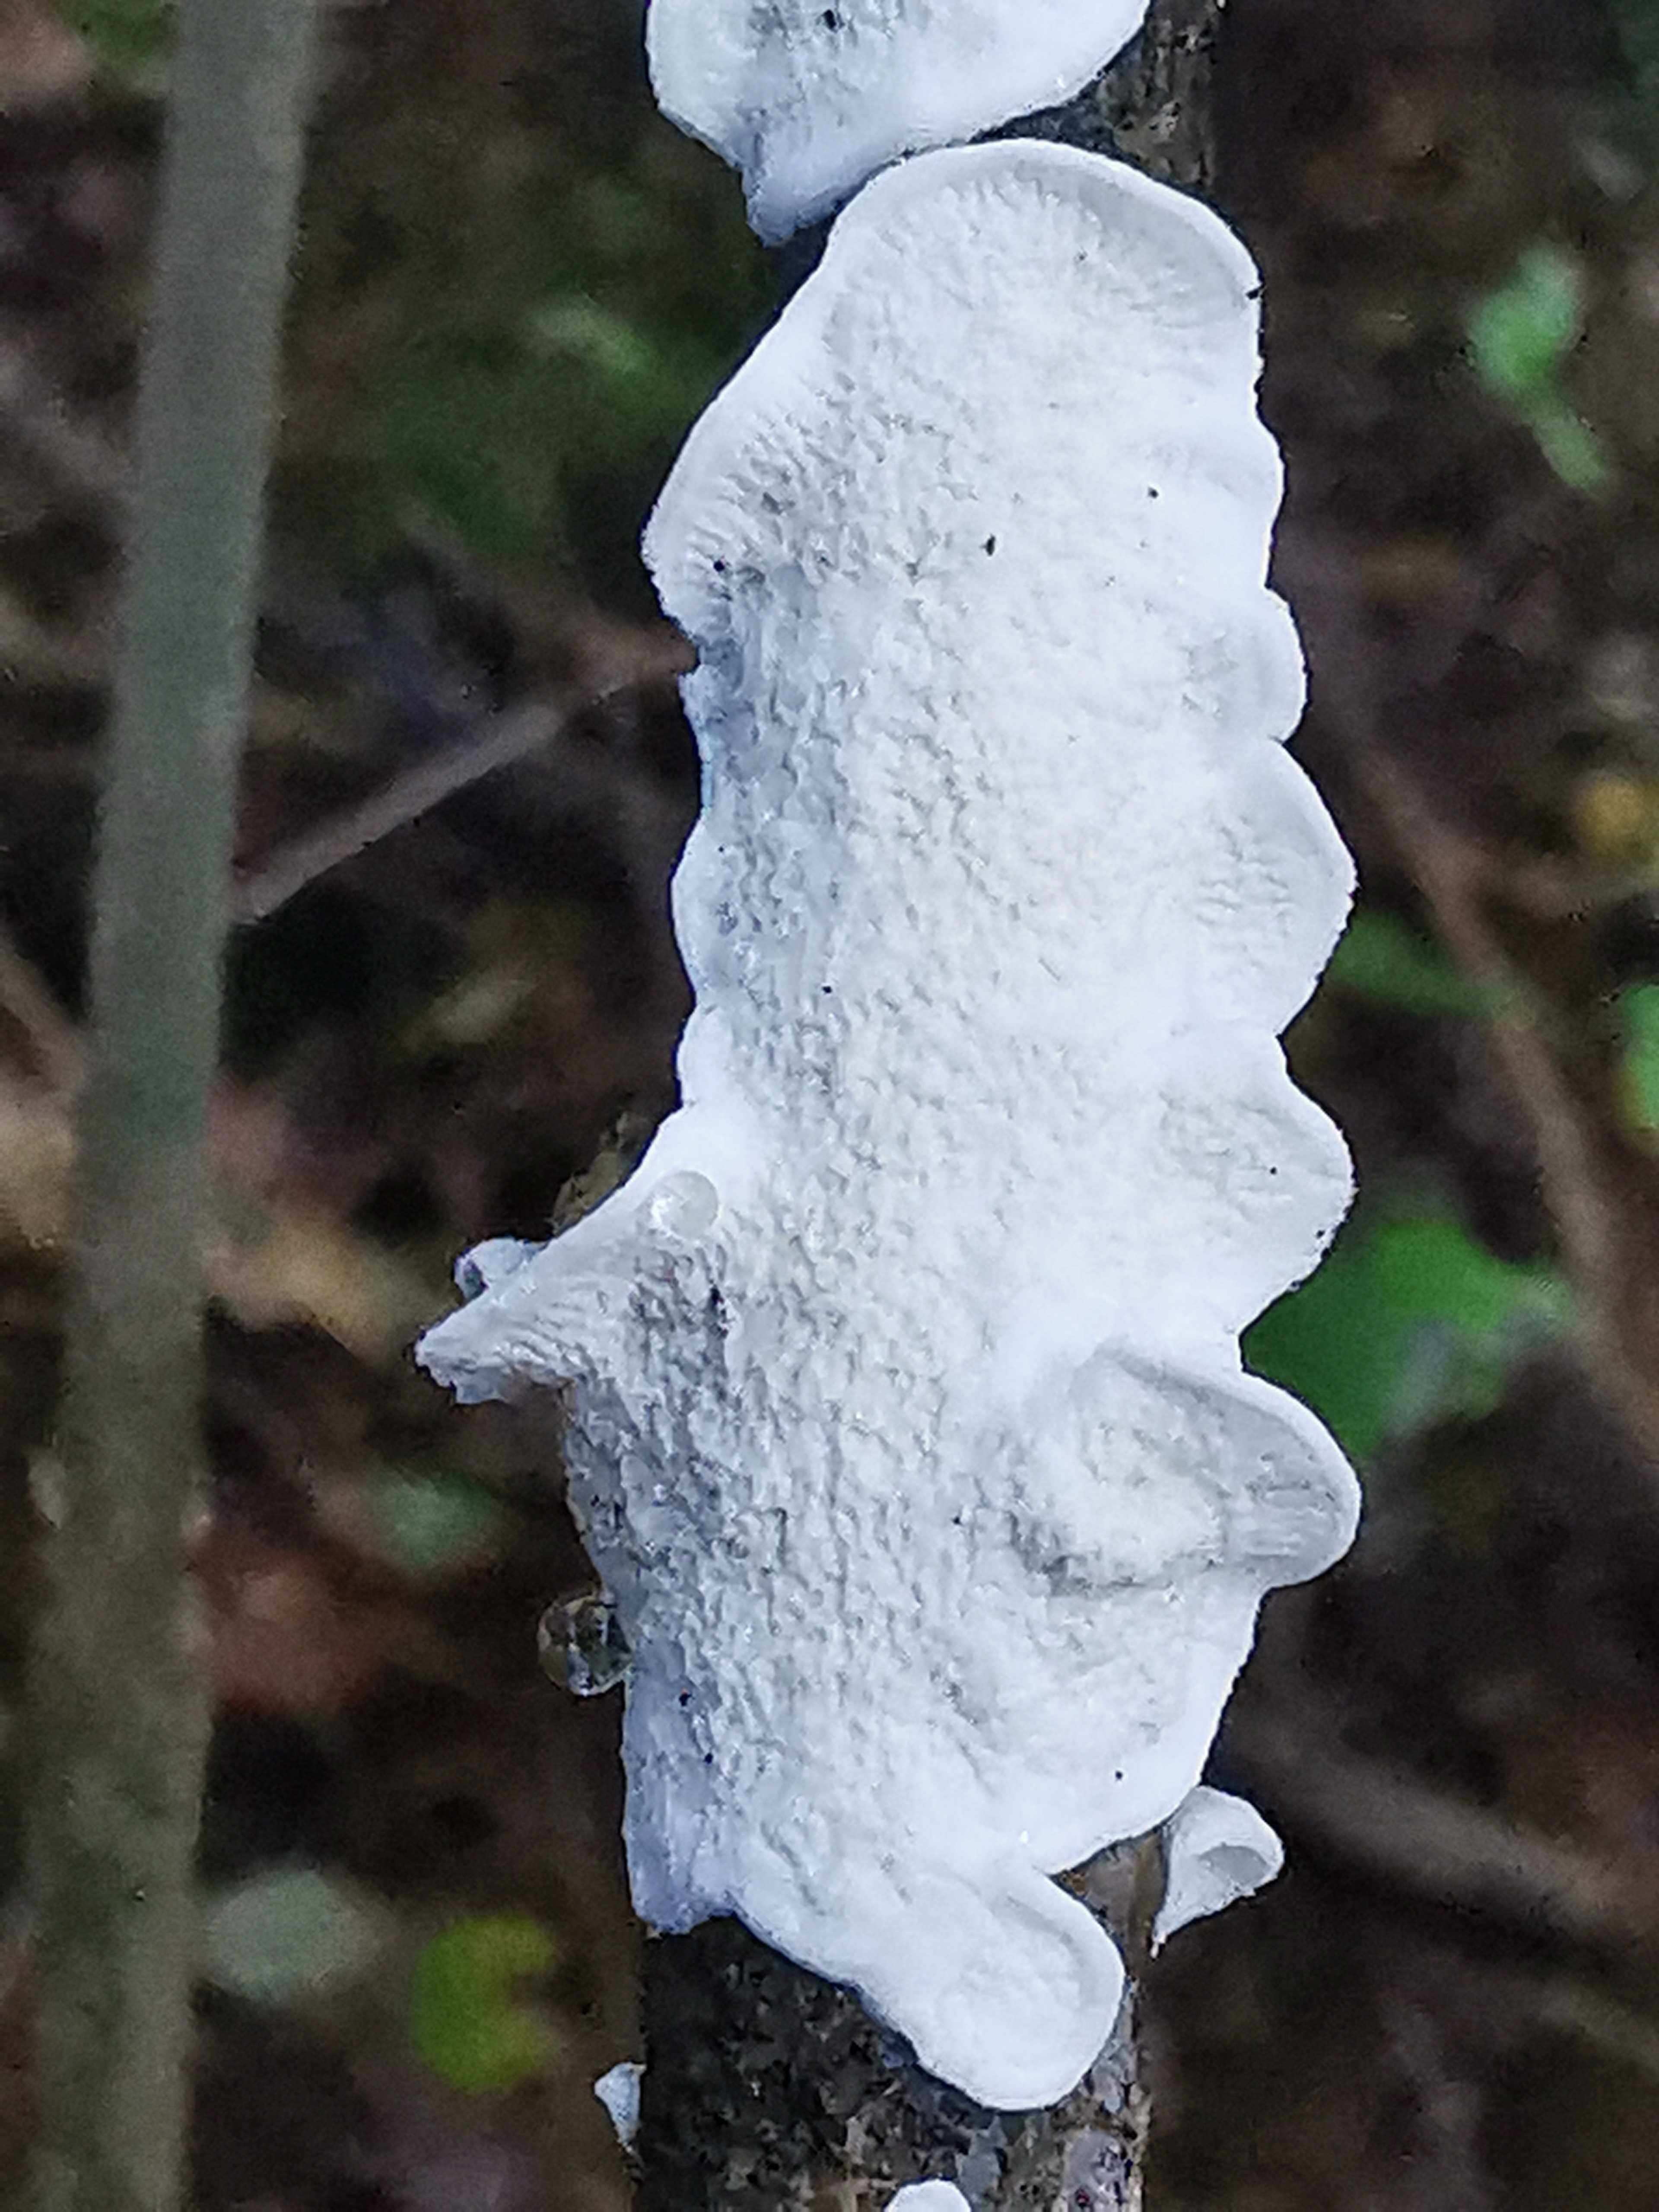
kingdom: Fungi
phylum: Basidiomycota
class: Agaricomycetes
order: Polyporales
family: Irpicaceae
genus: Byssomerulius
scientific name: Byssomerulius corium
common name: læder-åresvamp
